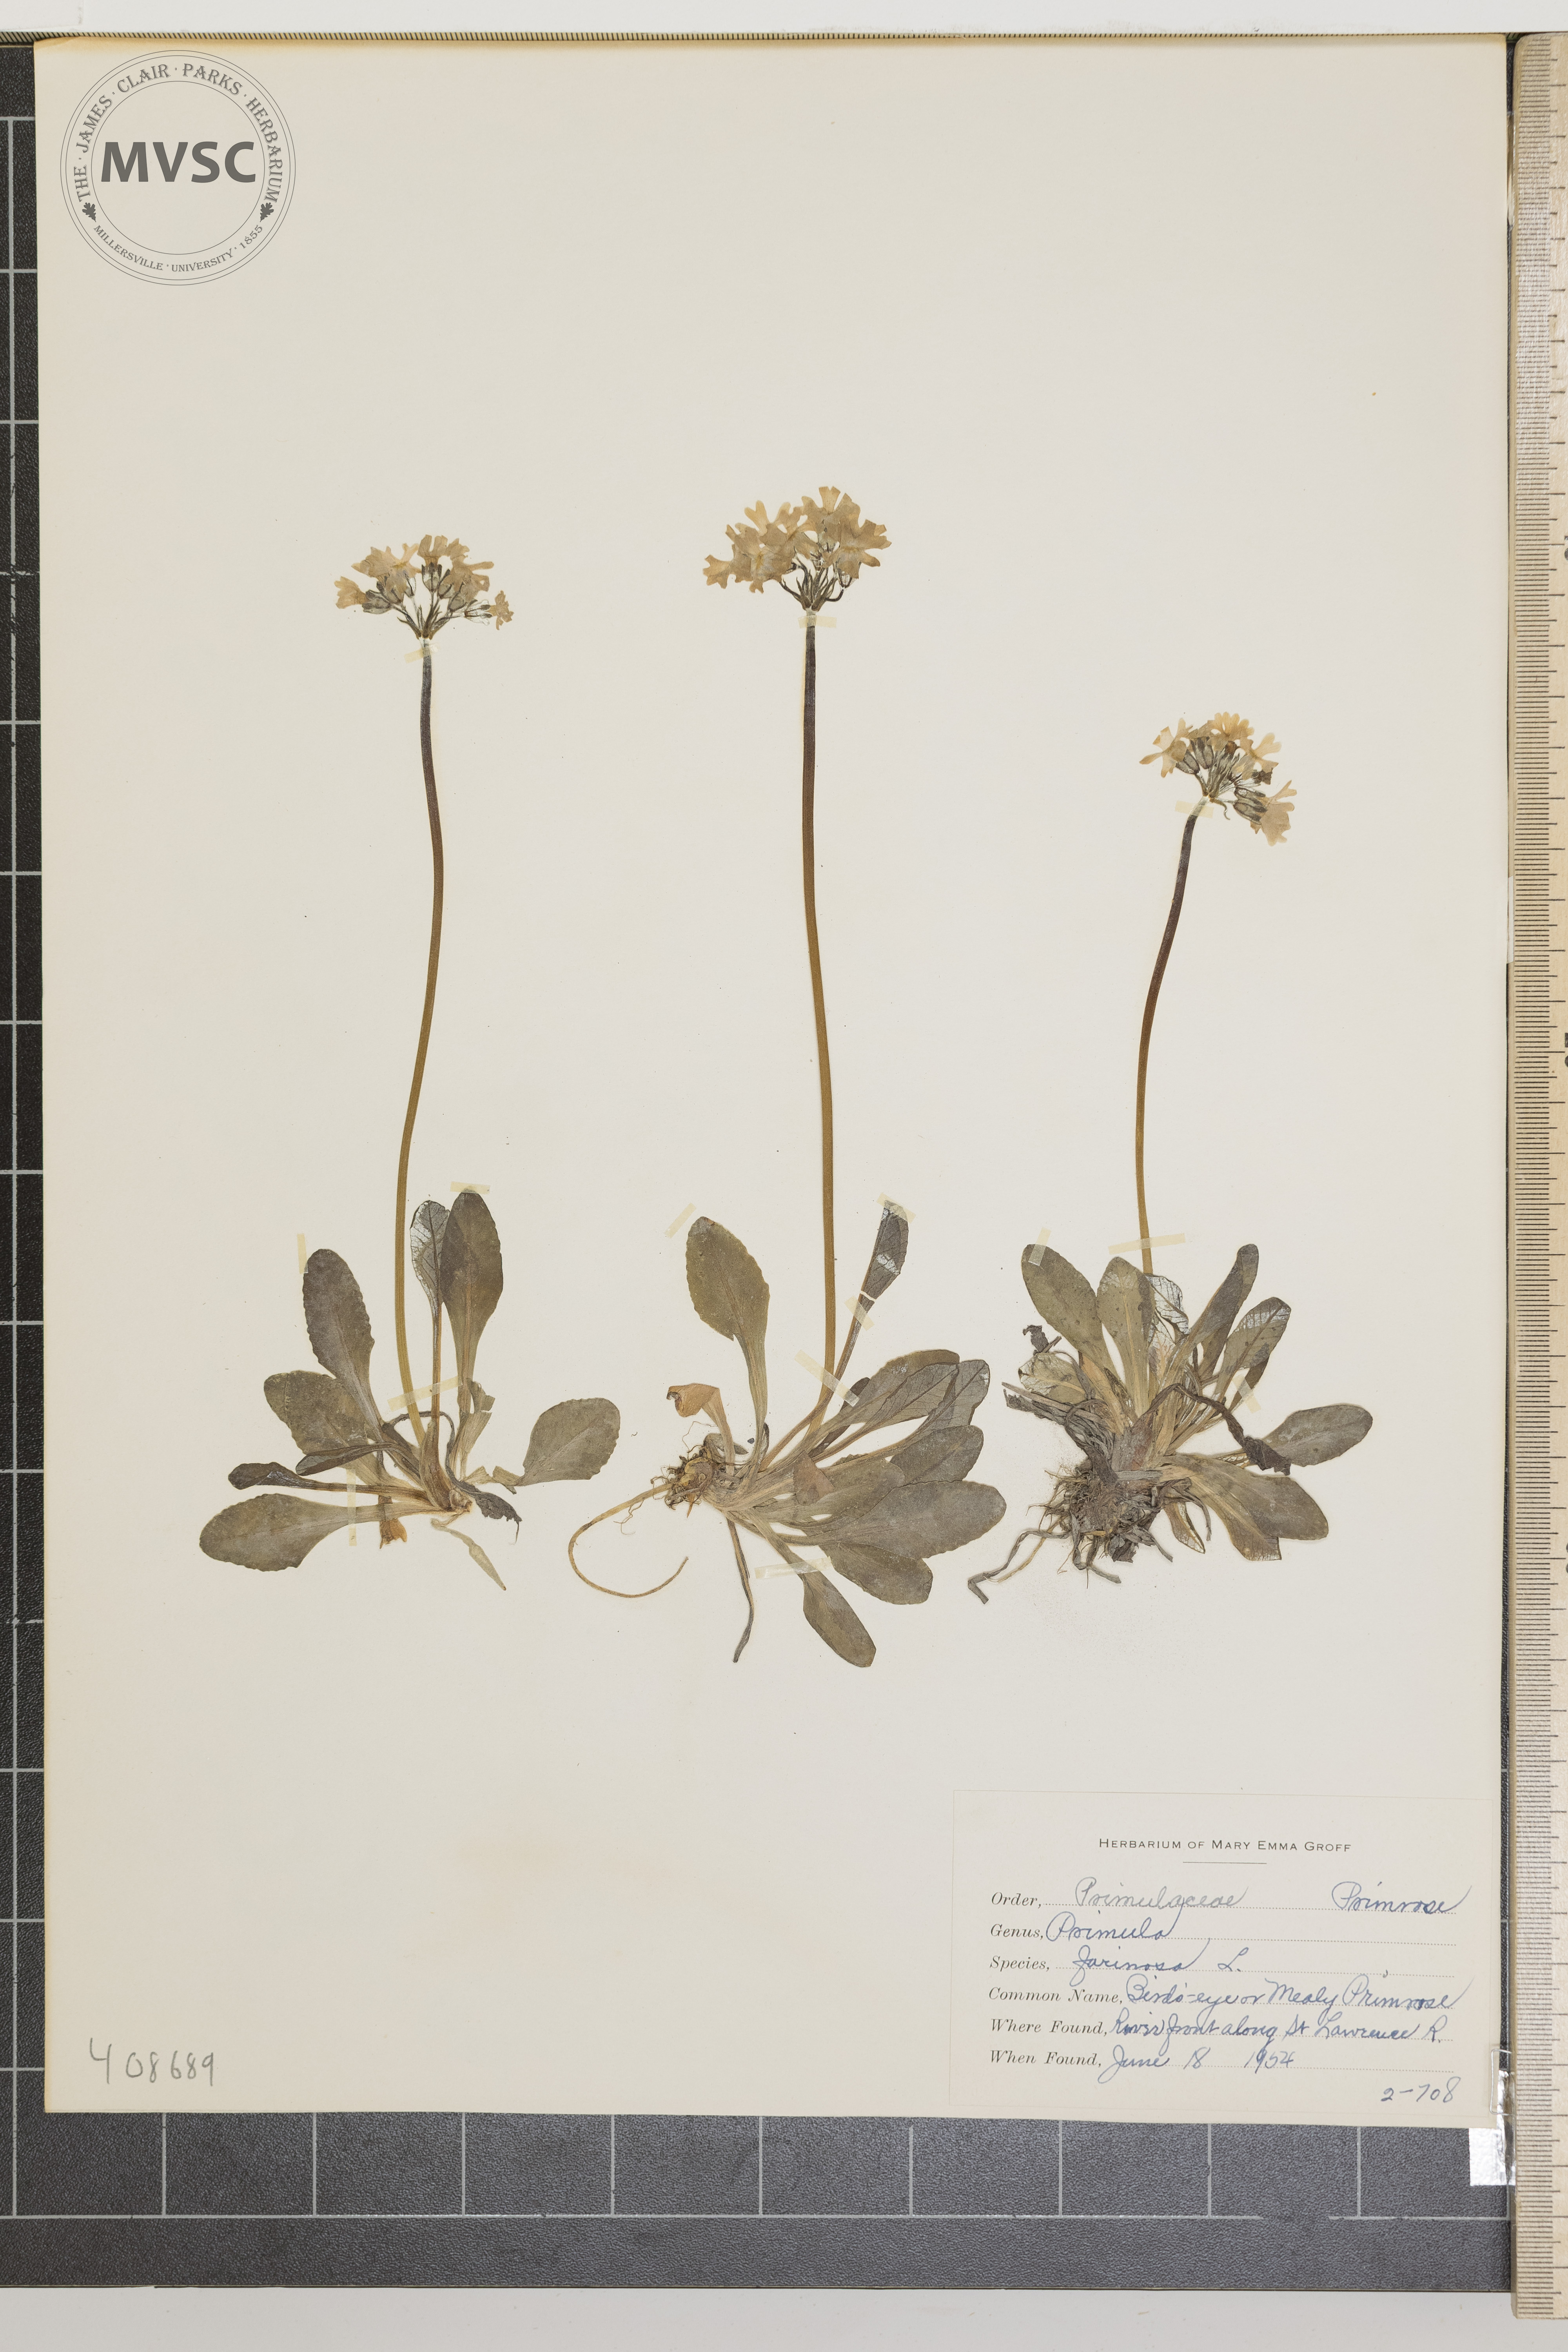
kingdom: Plantae
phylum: Tracheophyta
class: Magnoliopsida
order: Ericales
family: Primulaceae
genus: Primula
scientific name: Primula farinosa
